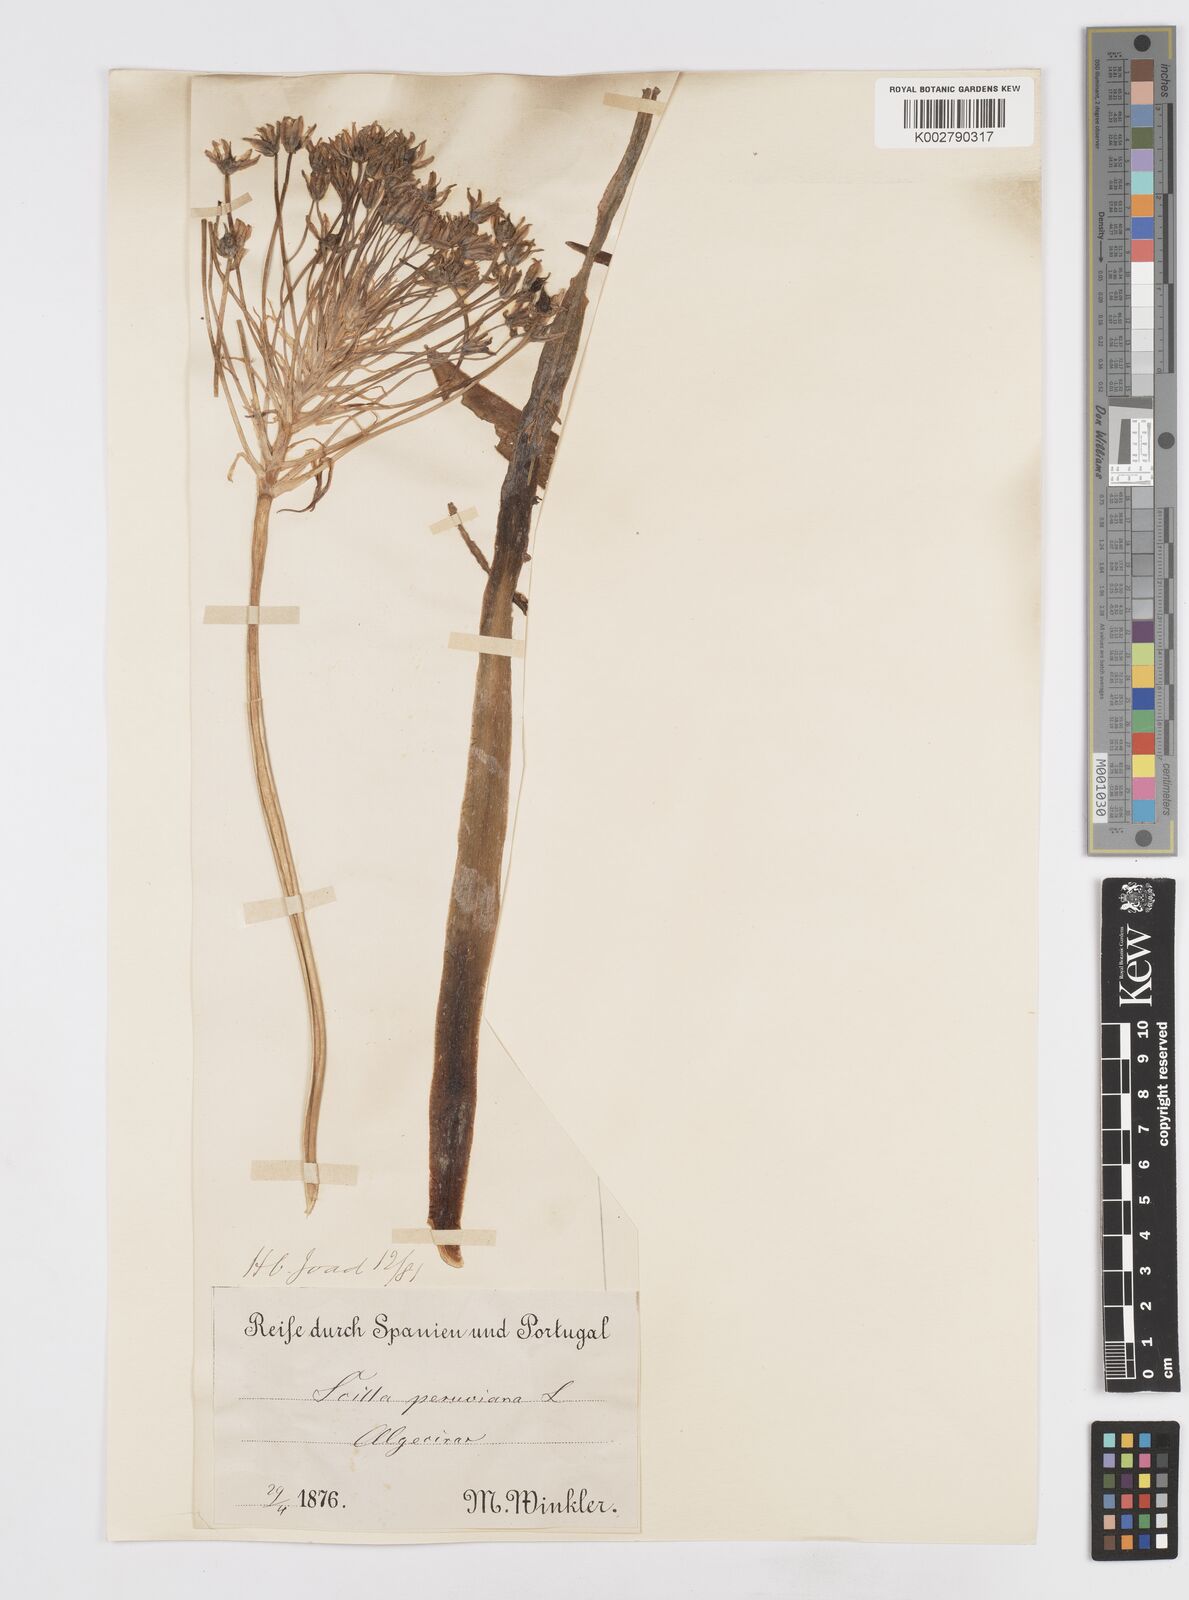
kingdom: Plantae
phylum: Tracheophyta
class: Liliopsida
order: Asparagales
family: Asparagaceae
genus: Scilla
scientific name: Scilla peruviana
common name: Portuguese squill
